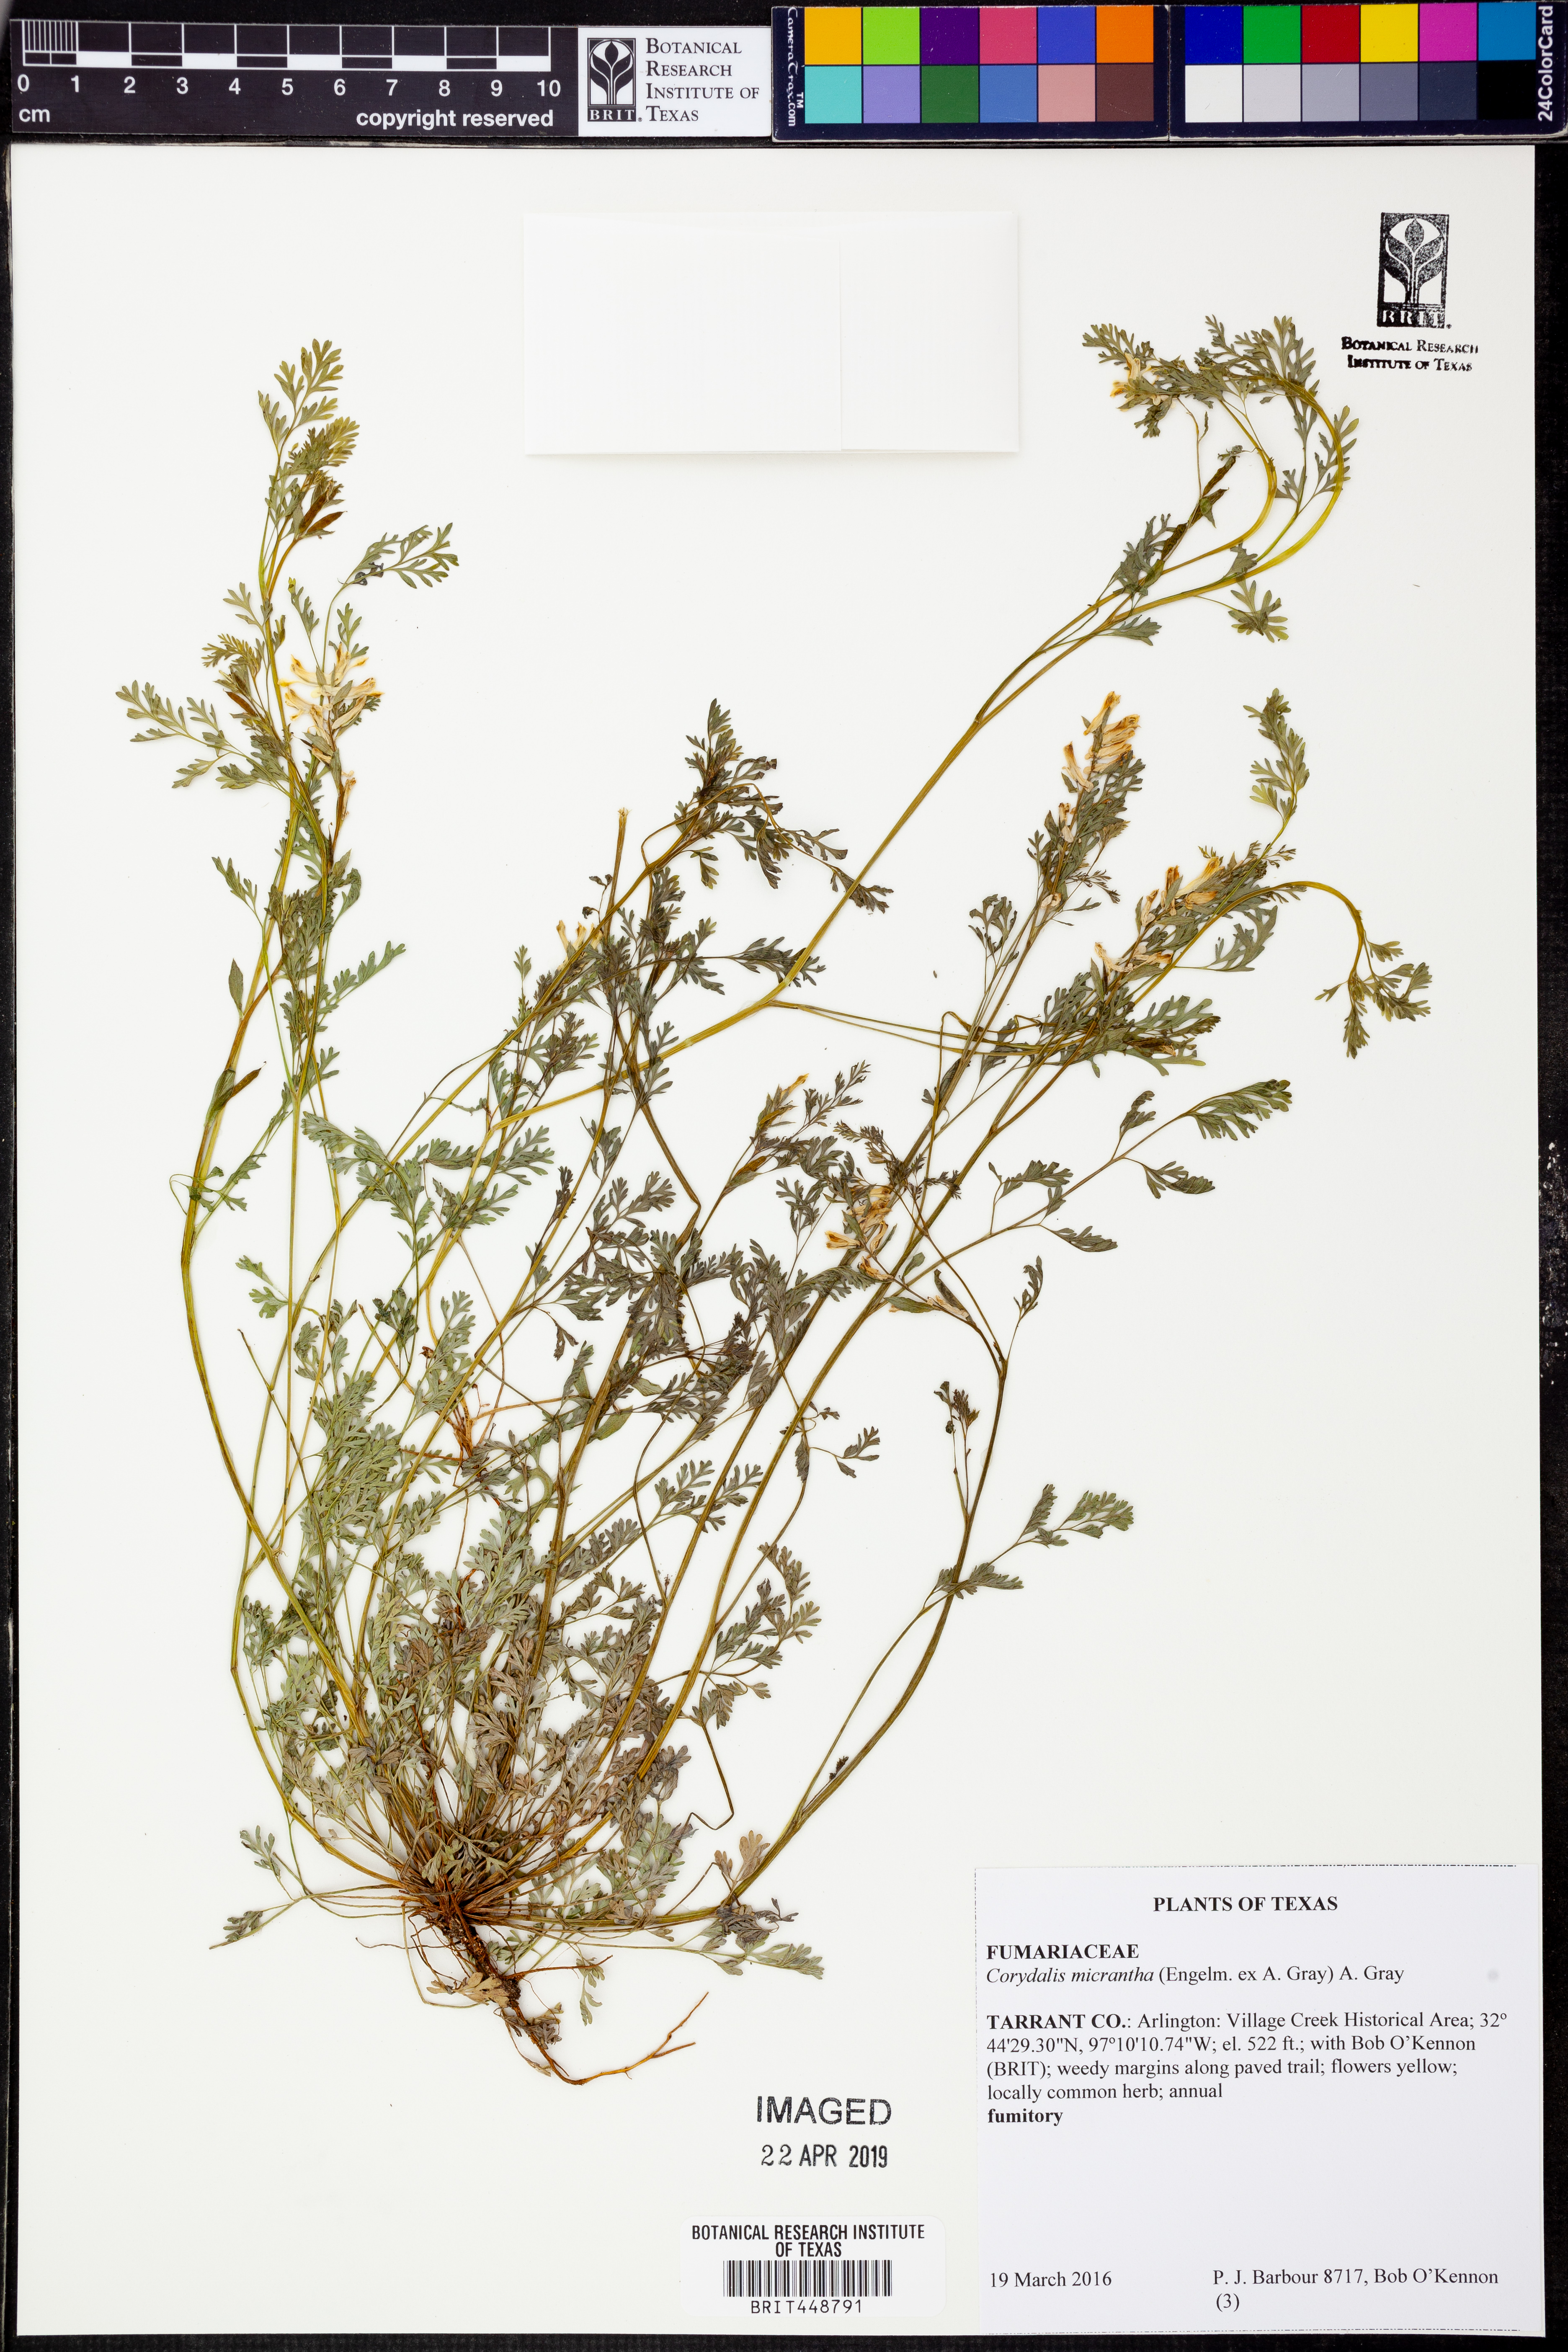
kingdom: Plantae
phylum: Tracheophyta
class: Magnoliopsida
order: Ranunculales
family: Papaveraceae
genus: Corydalis
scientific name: Corydalis micrantha
